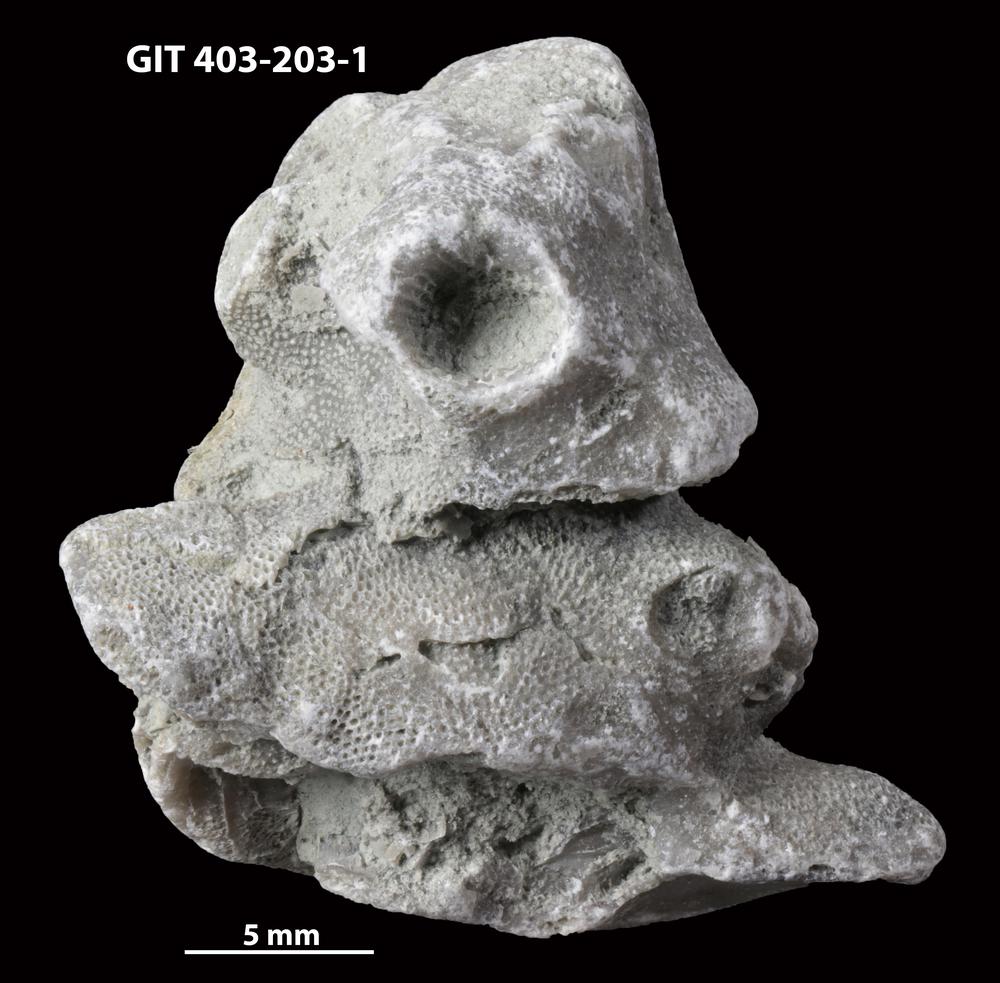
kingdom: Animalia
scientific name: Animalia
